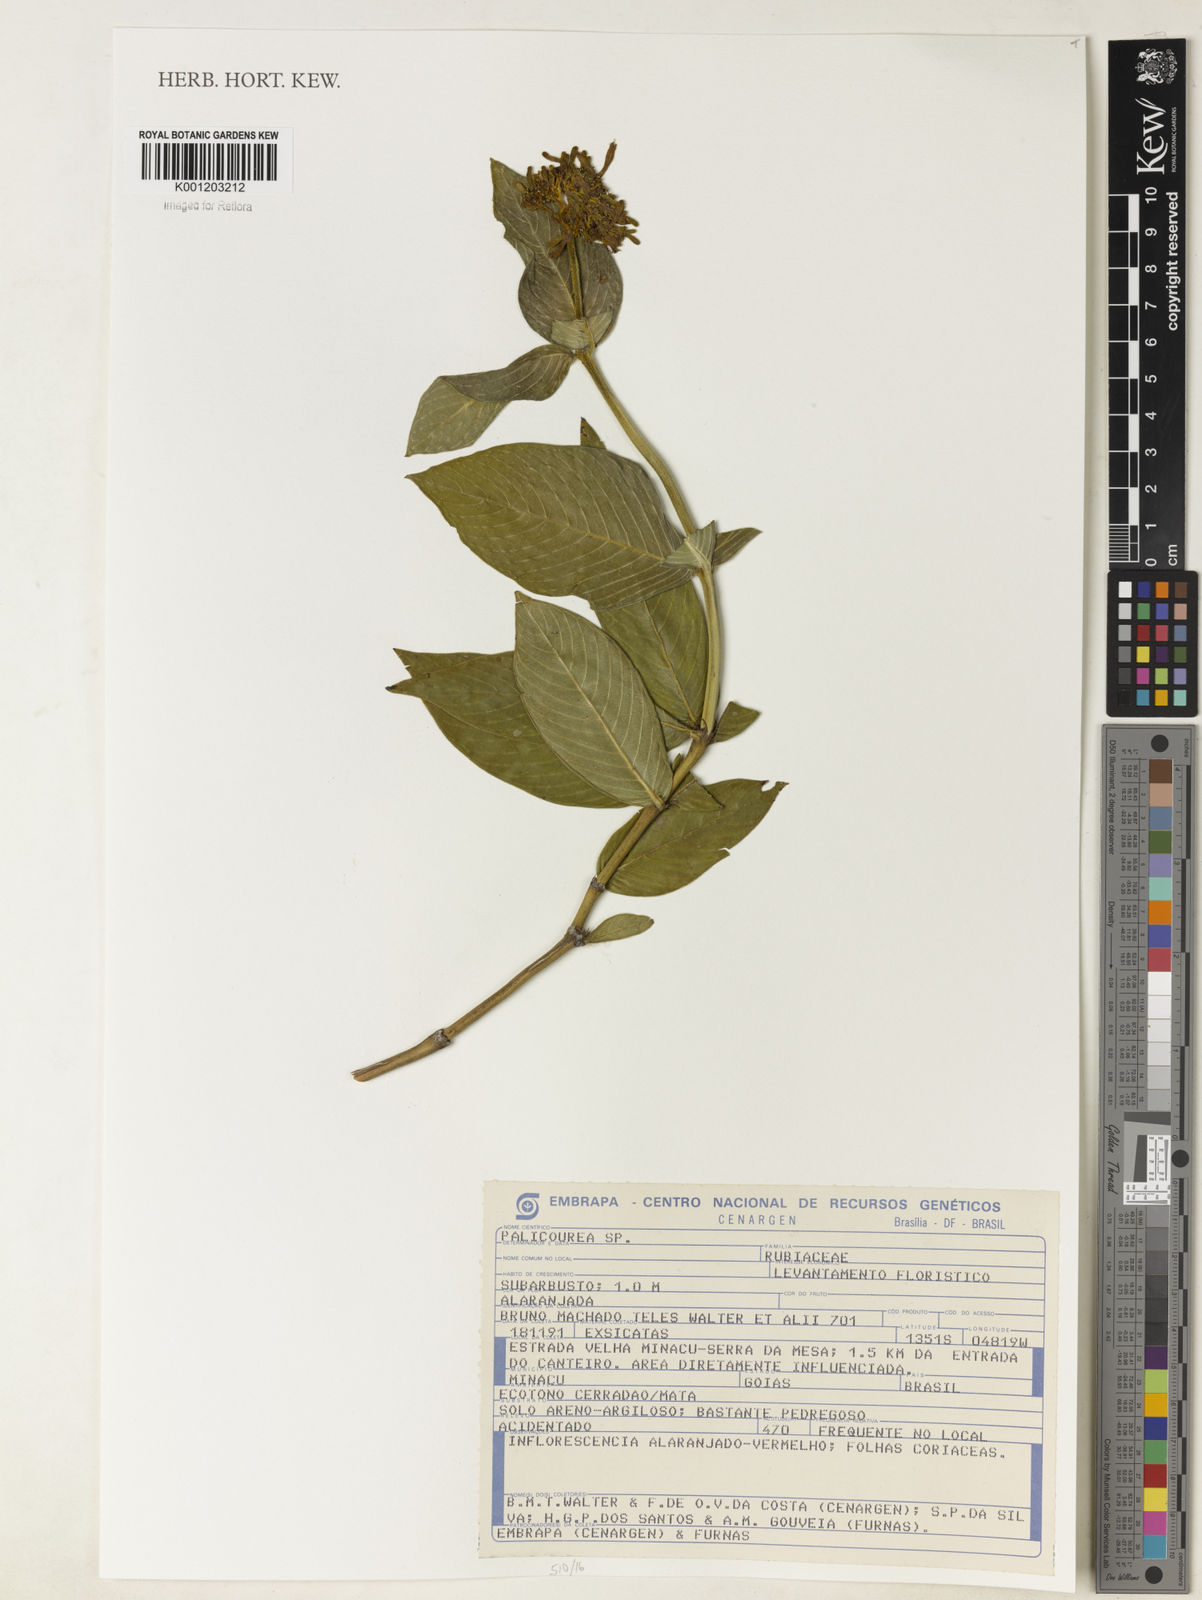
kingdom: Plantae
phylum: Tracheophyta
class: Magnoliopsida
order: Gentianales
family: Rubiaceae
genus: Palicourea
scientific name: Palicourea
